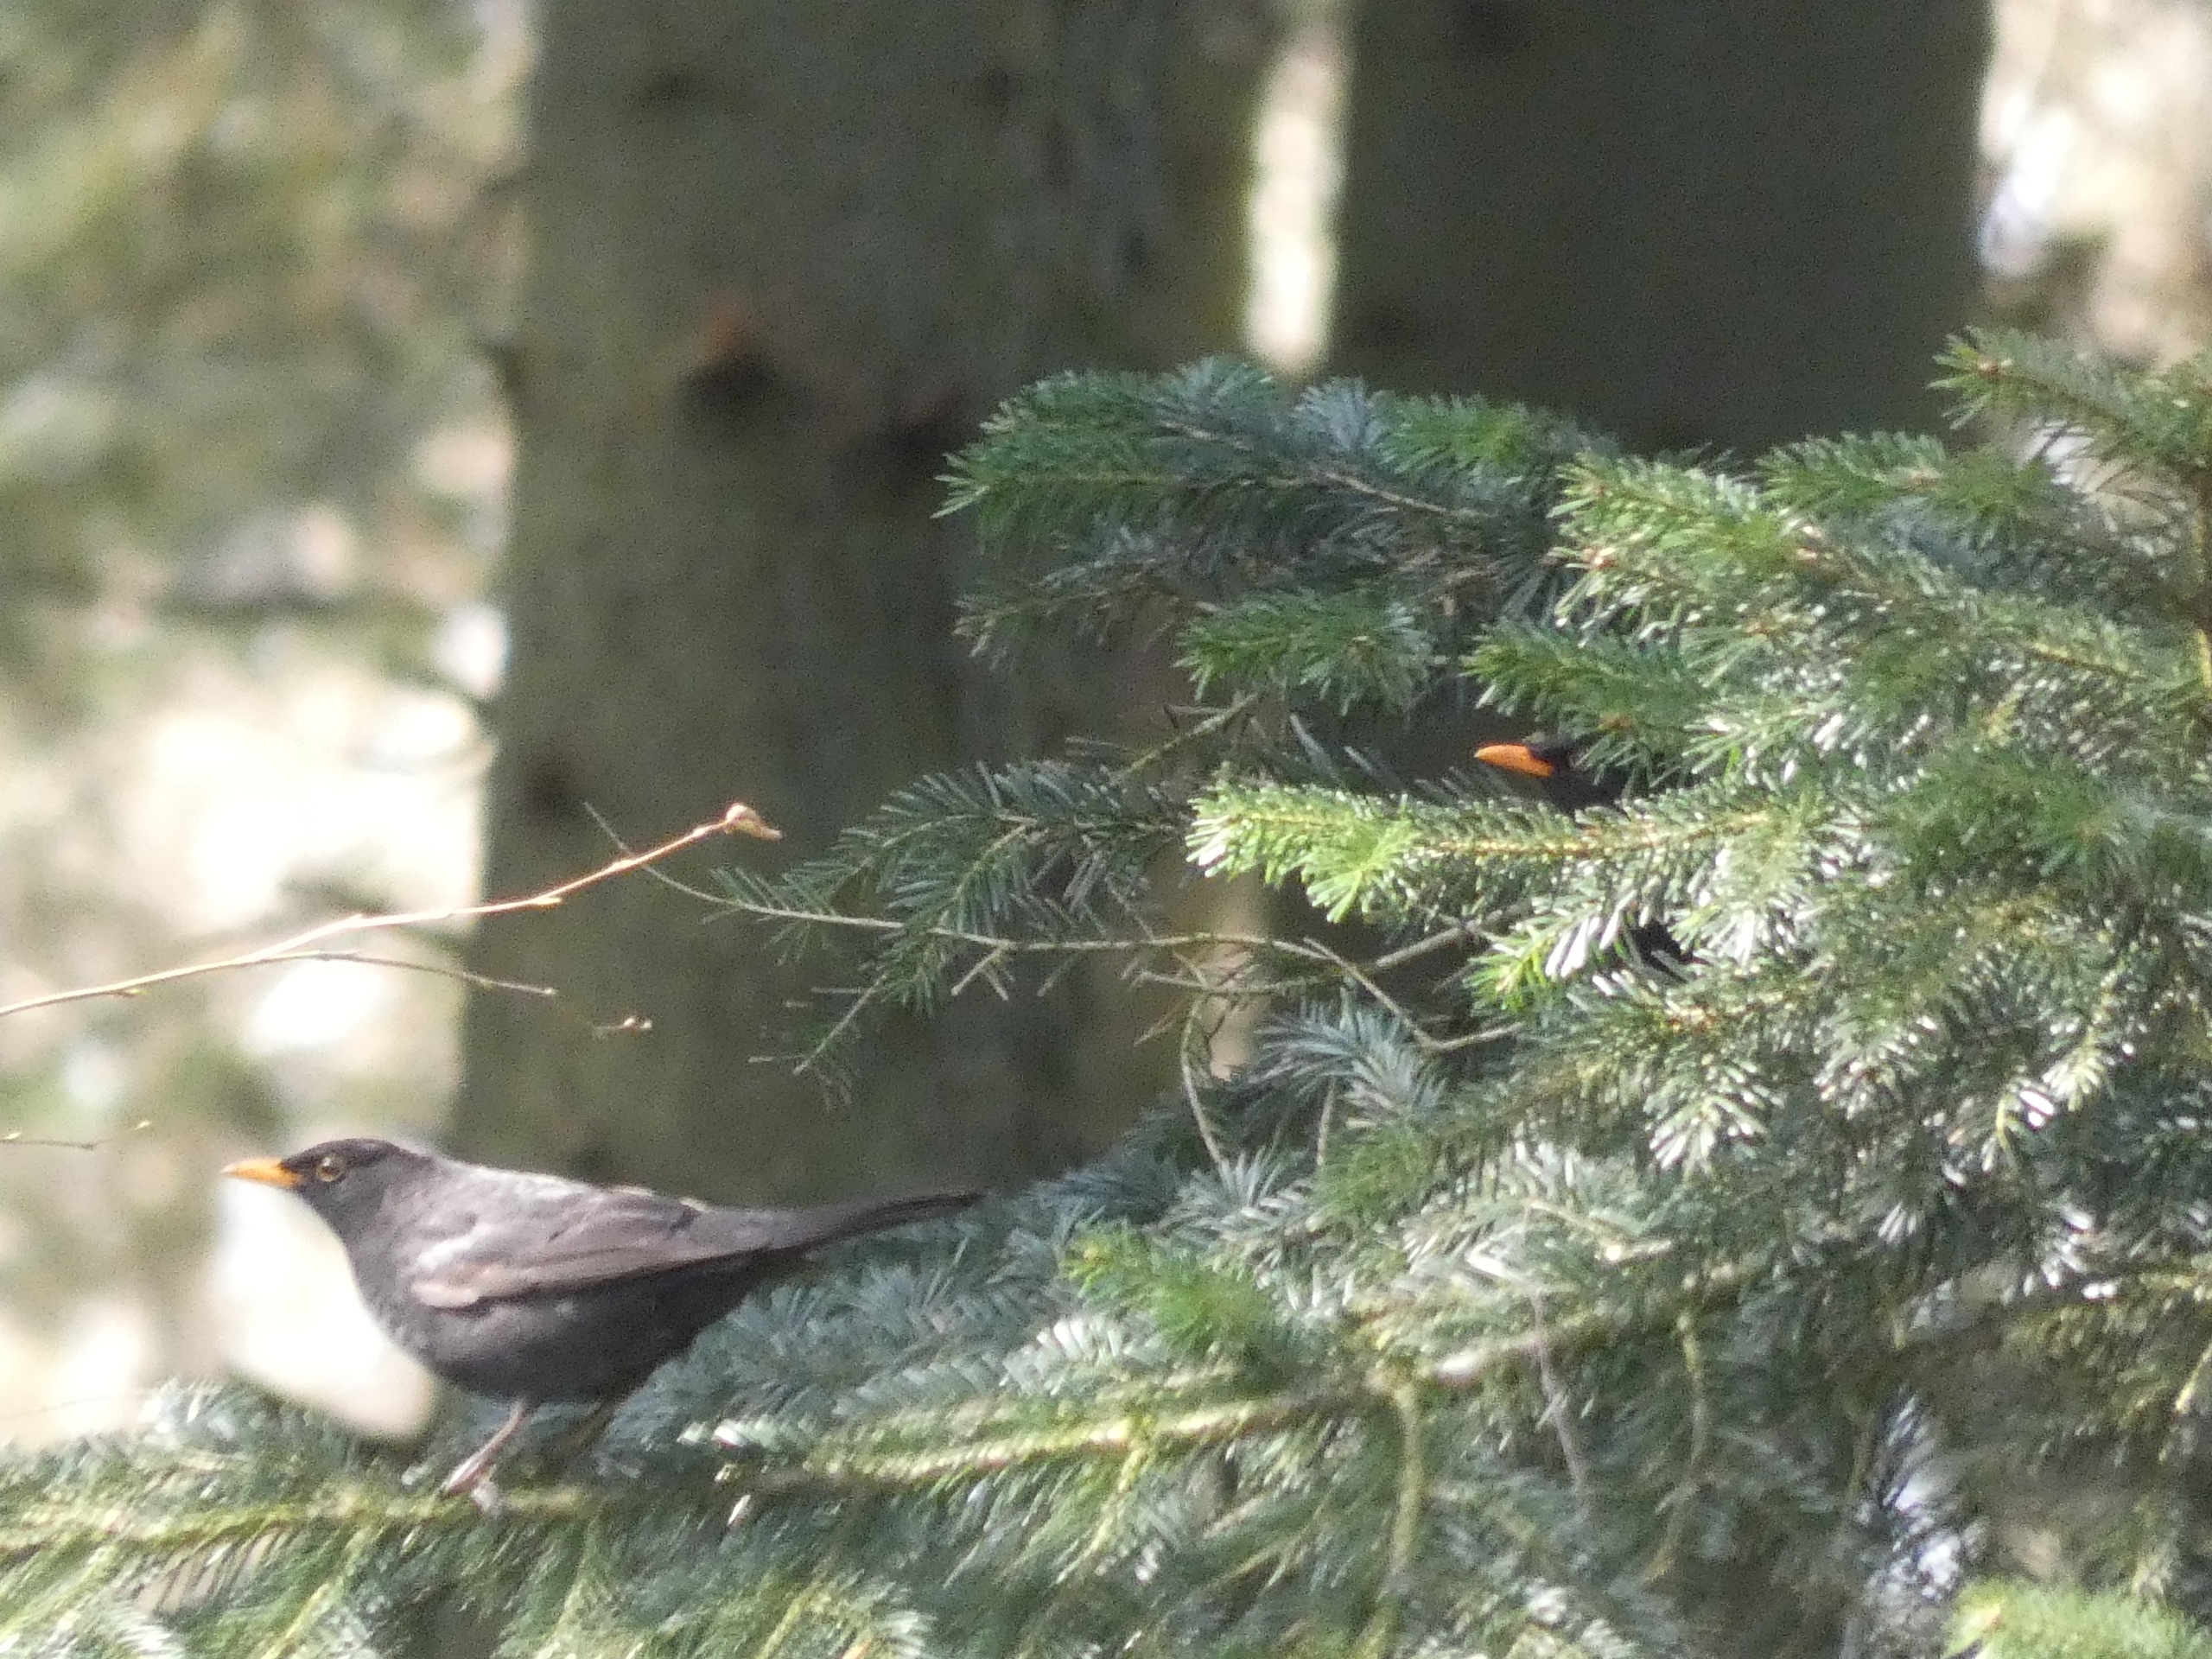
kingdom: Animalia
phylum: Chordata
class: Aves
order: Passeriformes
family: Turdidae
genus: Turdus
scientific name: Turdus merula
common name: Solsort
